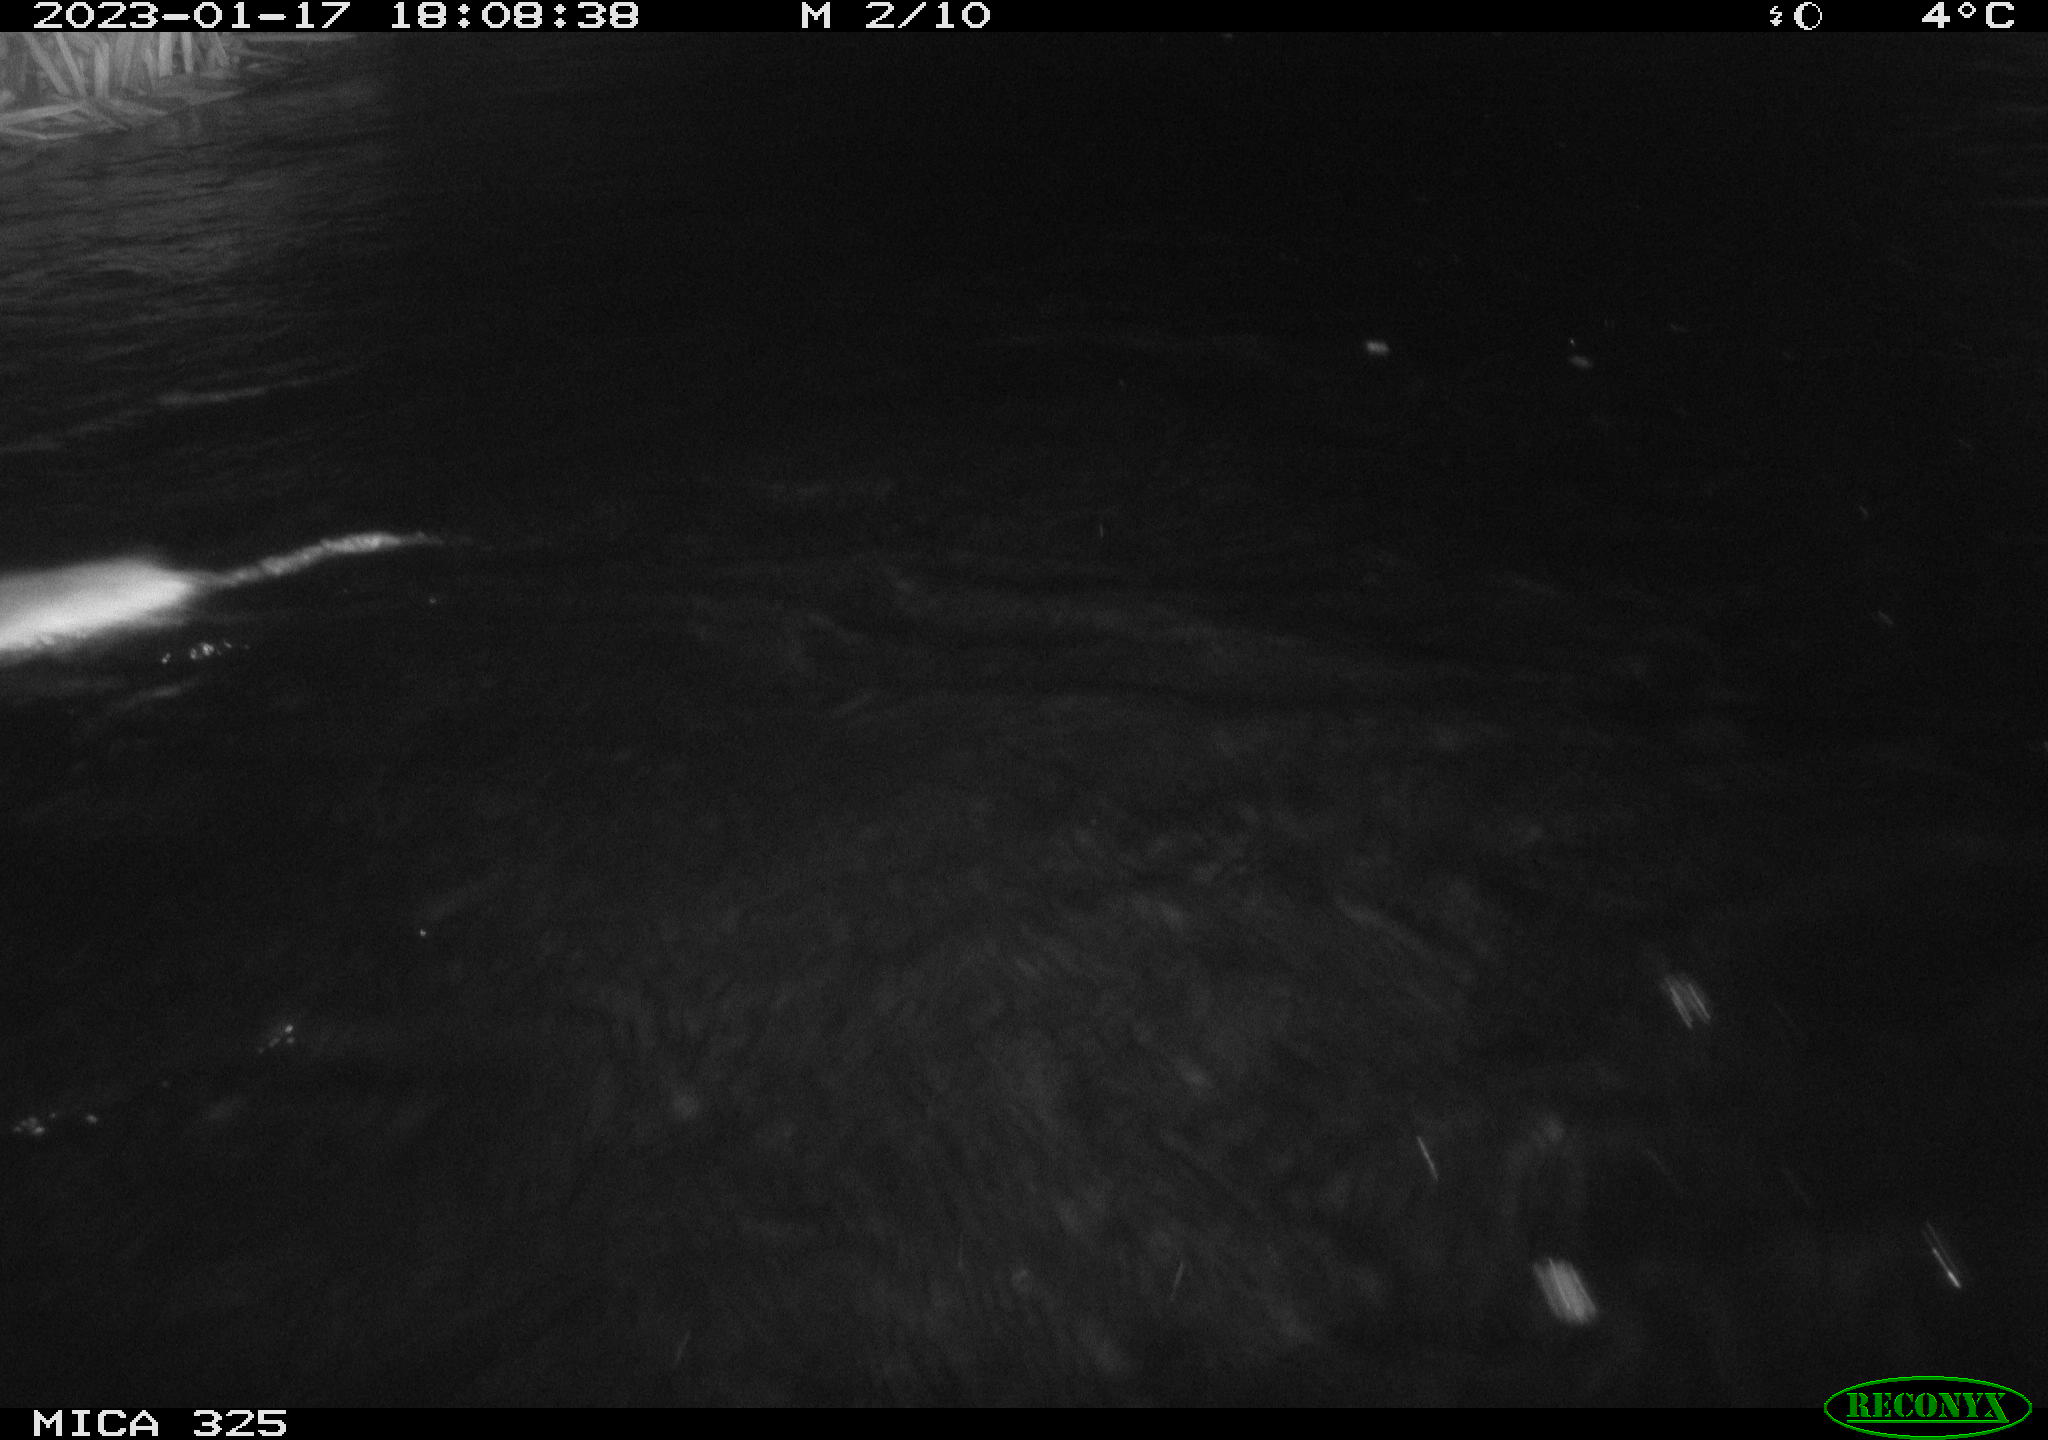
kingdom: Animalia
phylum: Chordata
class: Mammalia
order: Rodentia
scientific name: Rodentia
